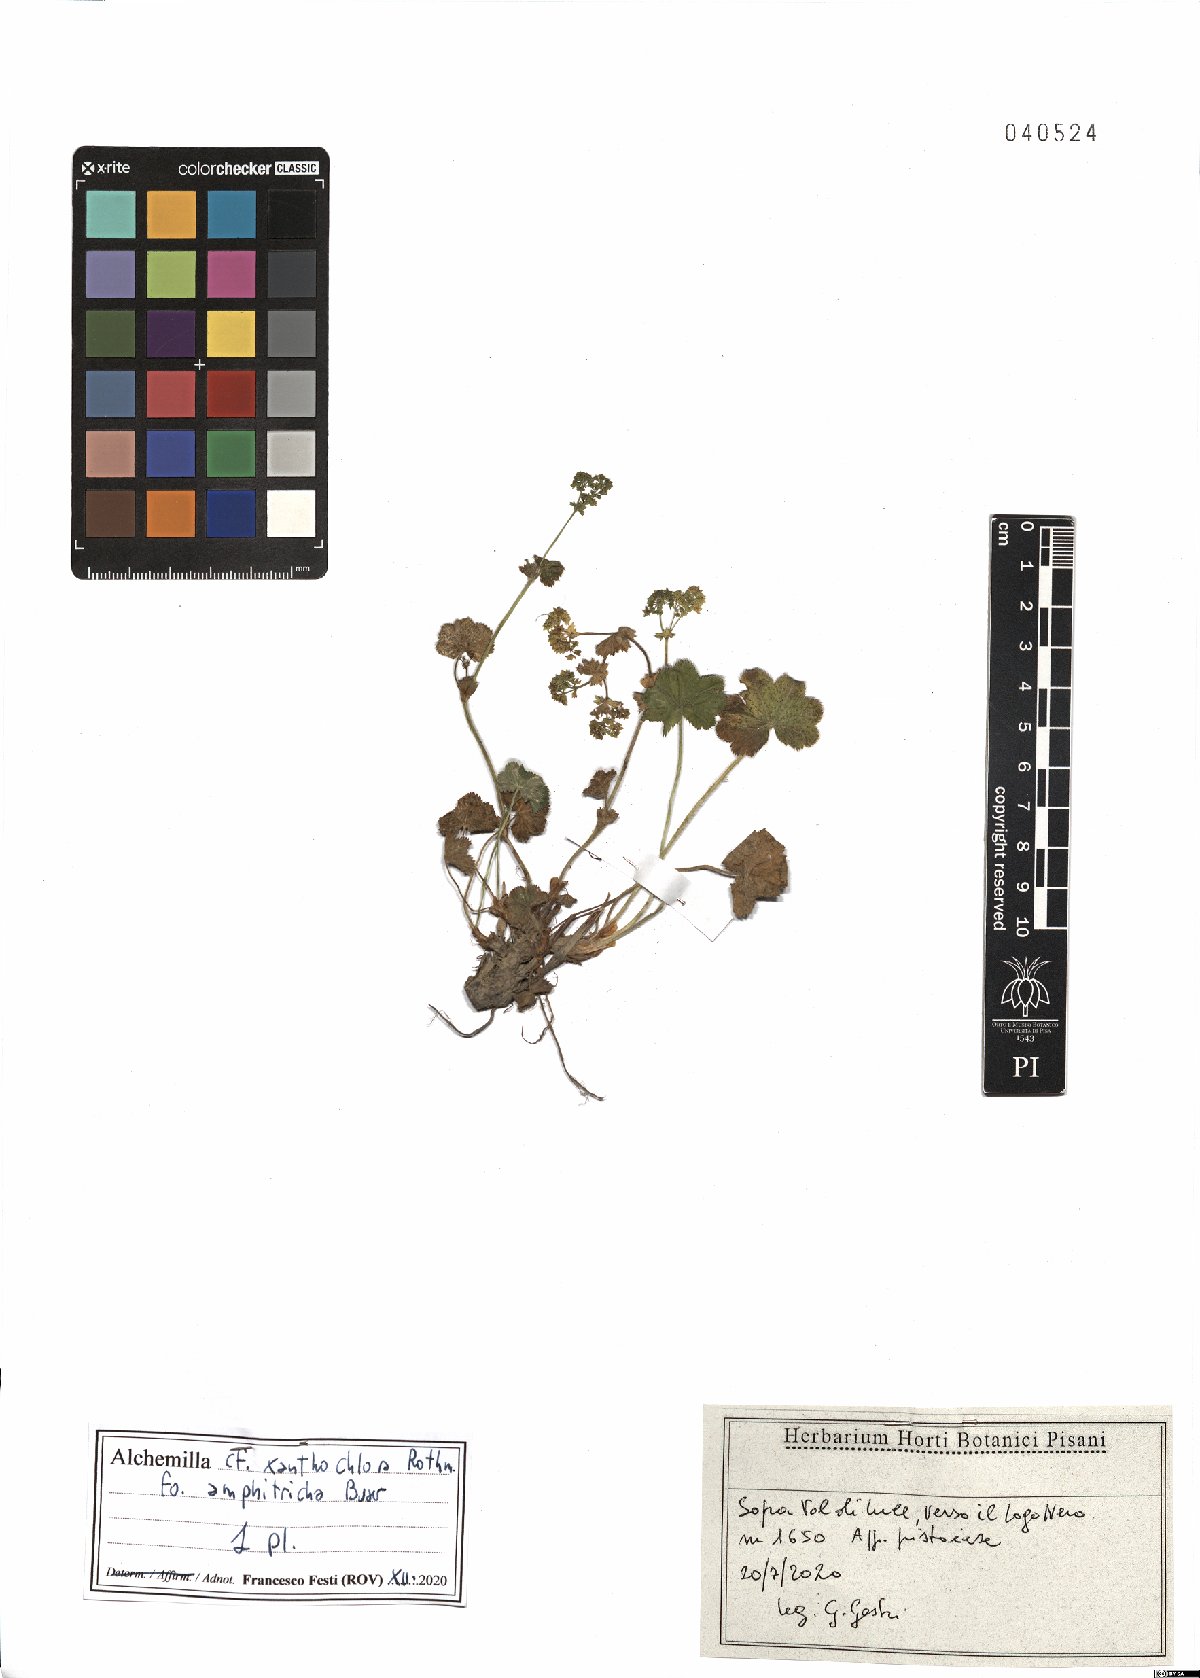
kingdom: Plantae
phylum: Tracheophyta
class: Magnoliopsida
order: Rosales
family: Rosaceae
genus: Alchemilla
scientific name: Alchemilla xanthochlora
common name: Intermediate lady's-mantle
